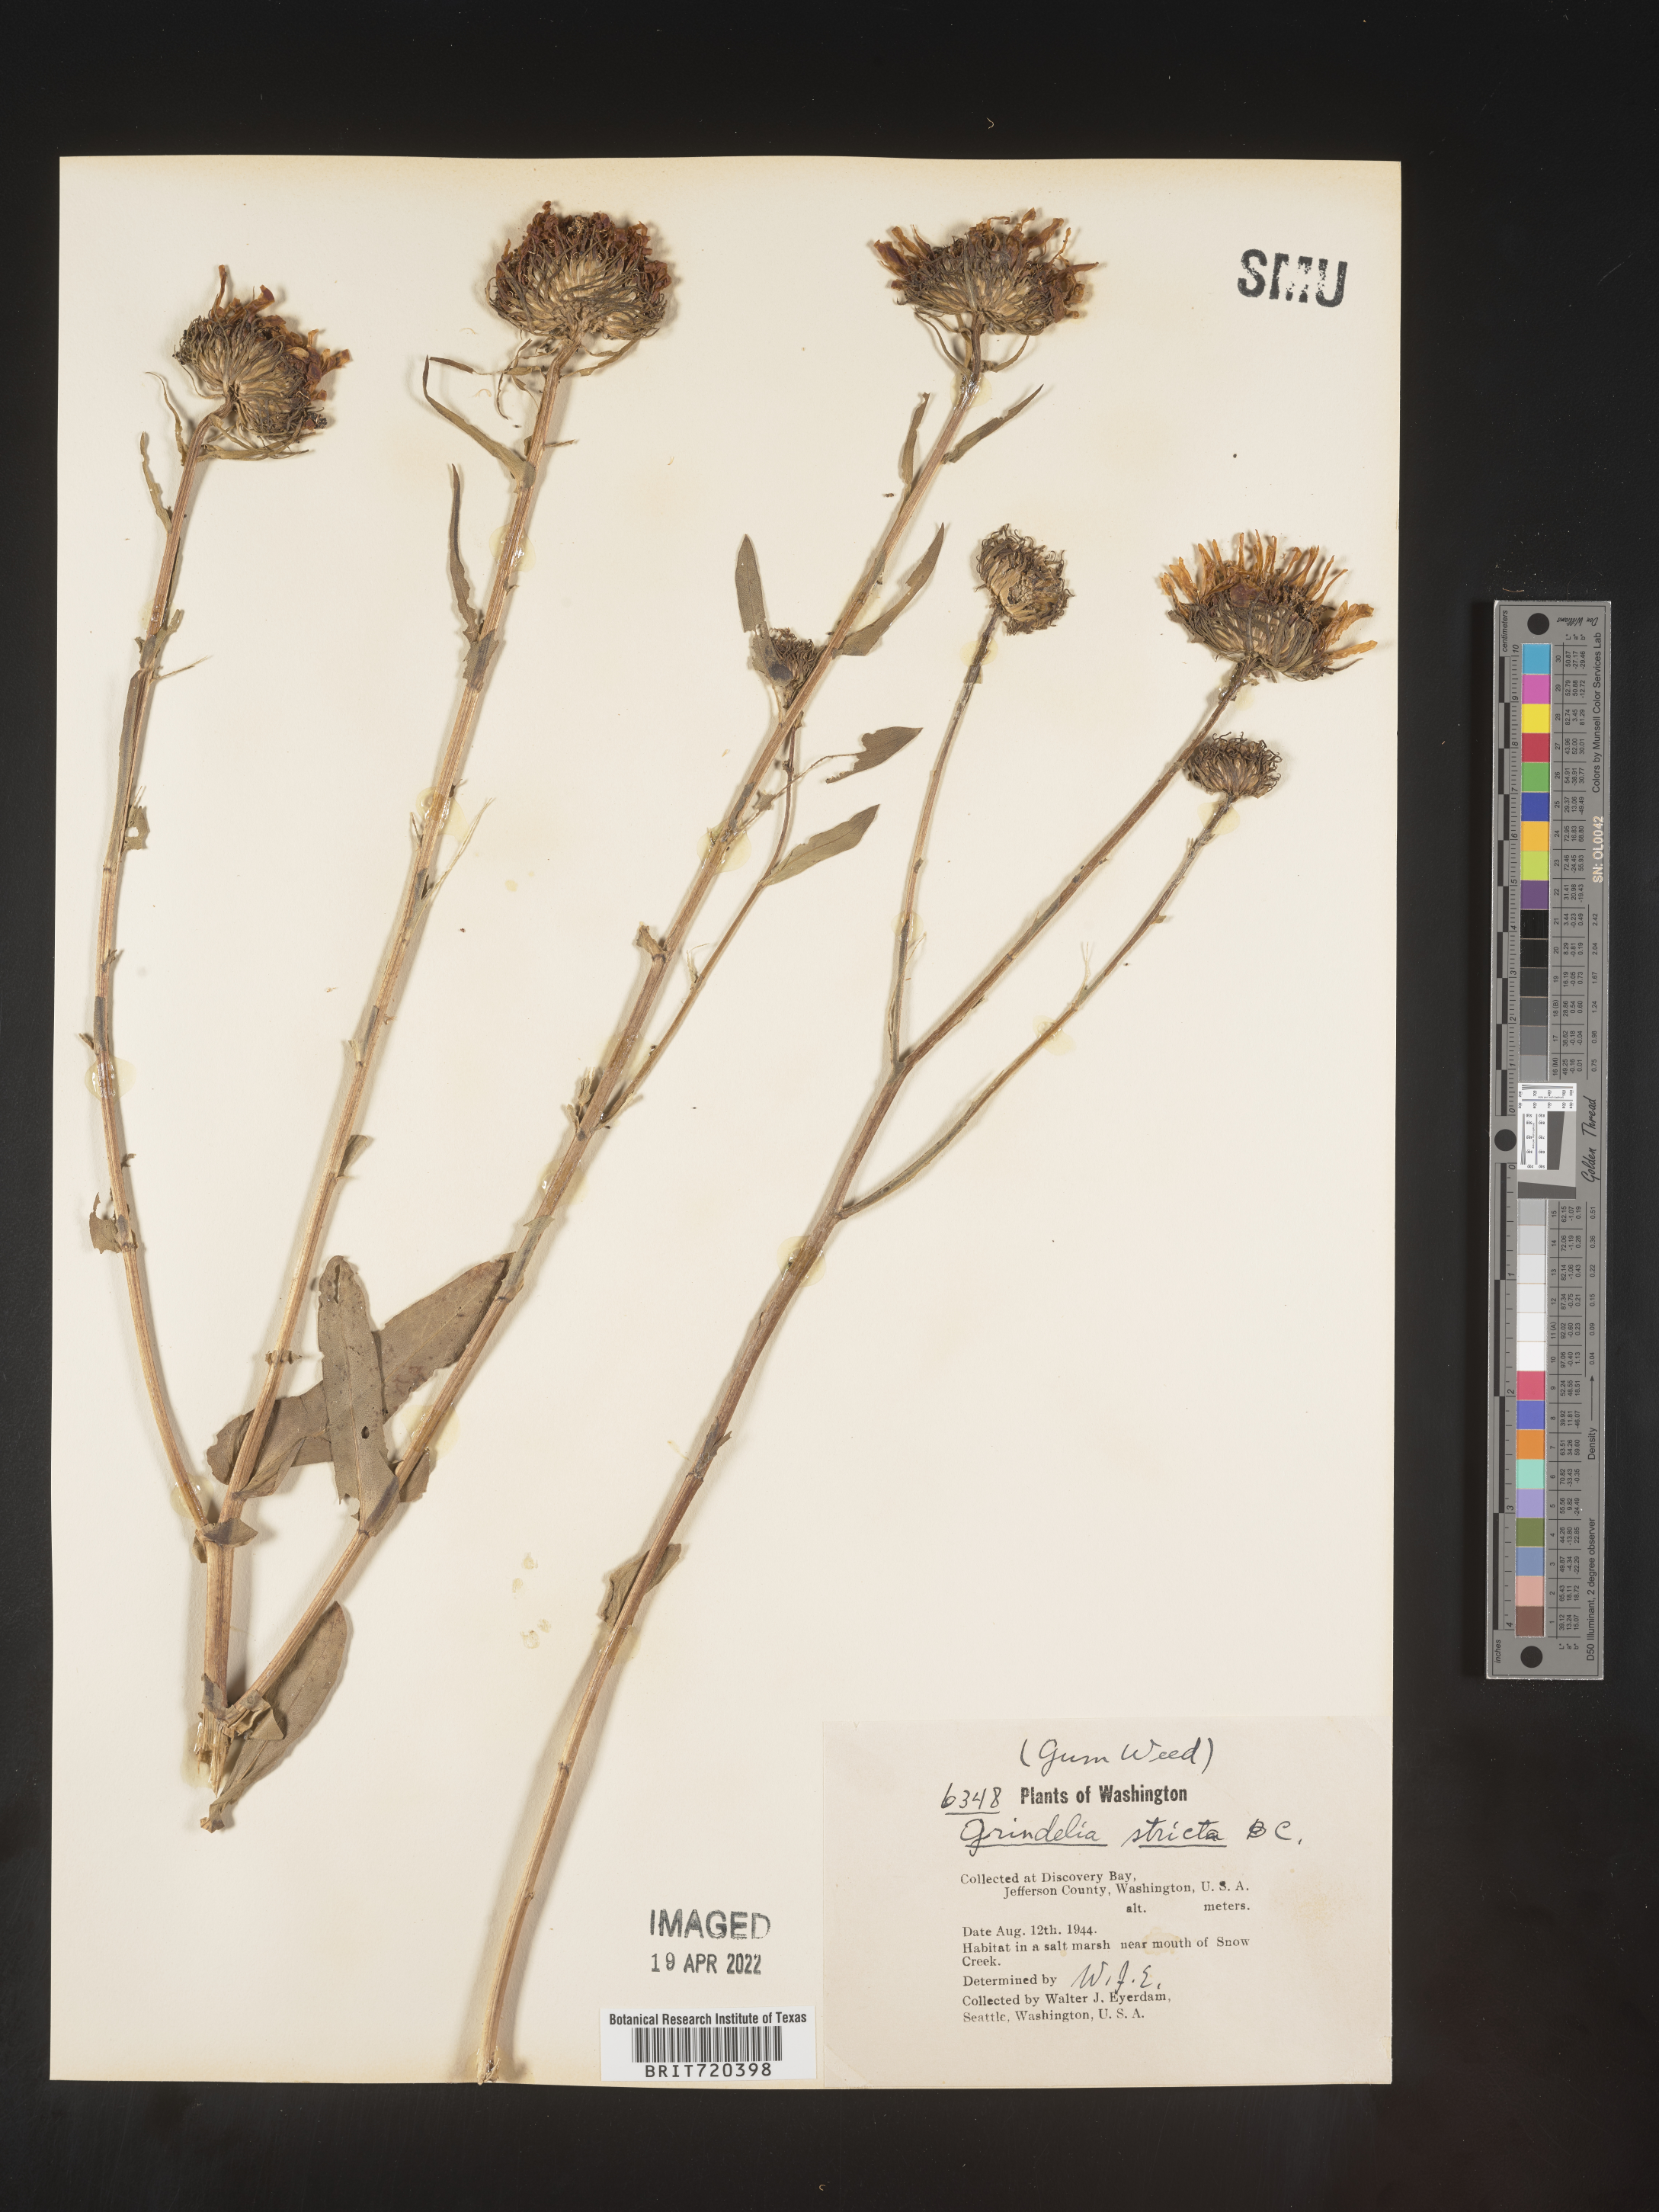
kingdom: Plantae
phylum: Tracheophyta
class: Magnoliopsida
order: Asterales
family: Asteraceae
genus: Grindelia
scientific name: Grindelia hirsutula
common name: Hairy gumweed
